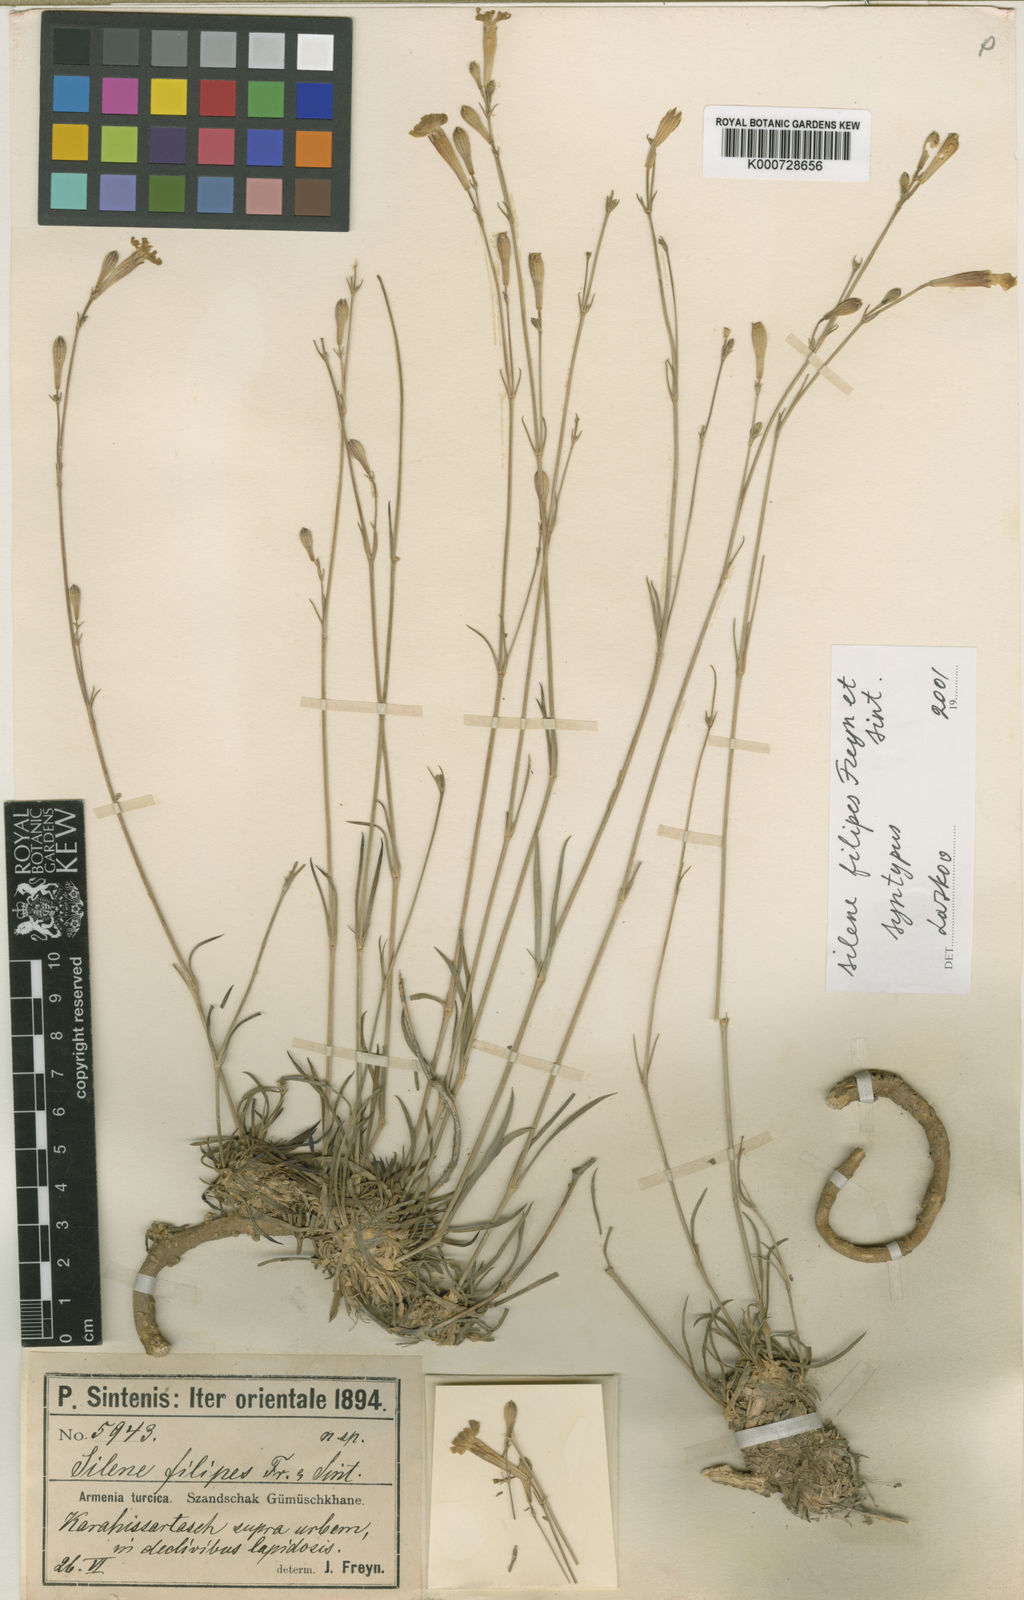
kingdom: Plantae
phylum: Tracheophyta
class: Magnoliopsida
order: Caryophyllales
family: Caryophyllaceae
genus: Silene
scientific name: Silene armena
